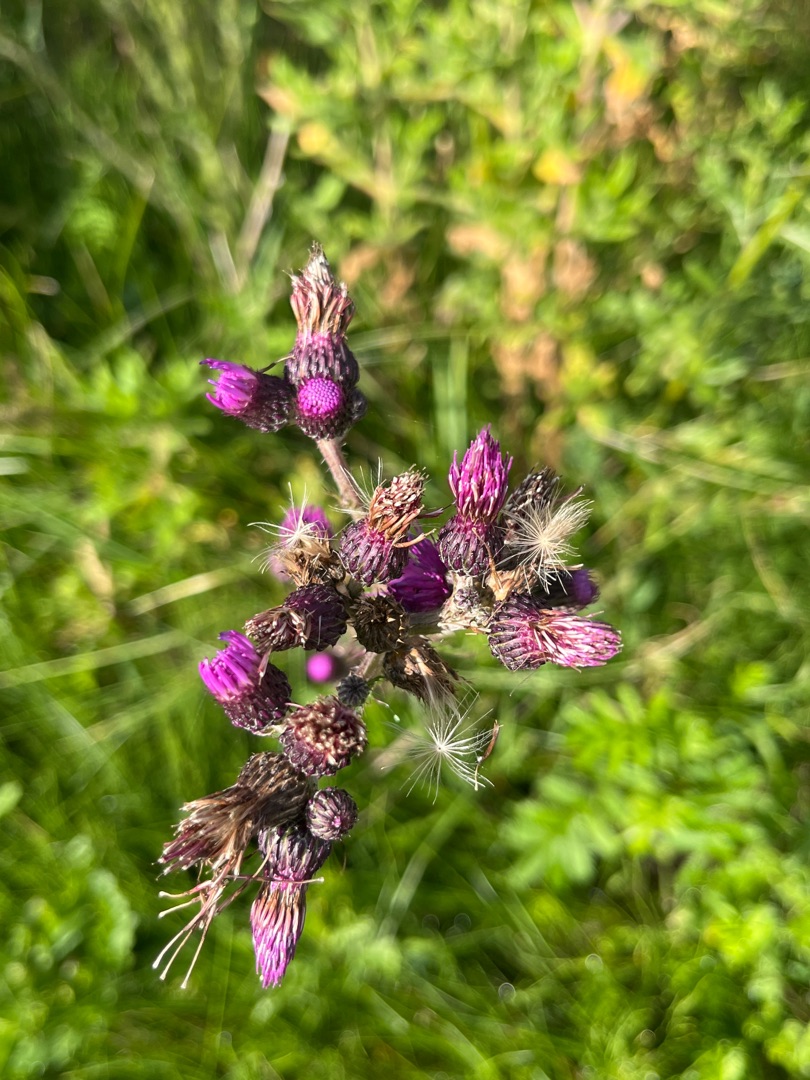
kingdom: Plantae
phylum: Tracheophyta
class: Magnoliopsida
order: Asterales
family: Asteraceae
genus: Cirsium
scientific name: Cirsium palustre
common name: Kær-tidsel
